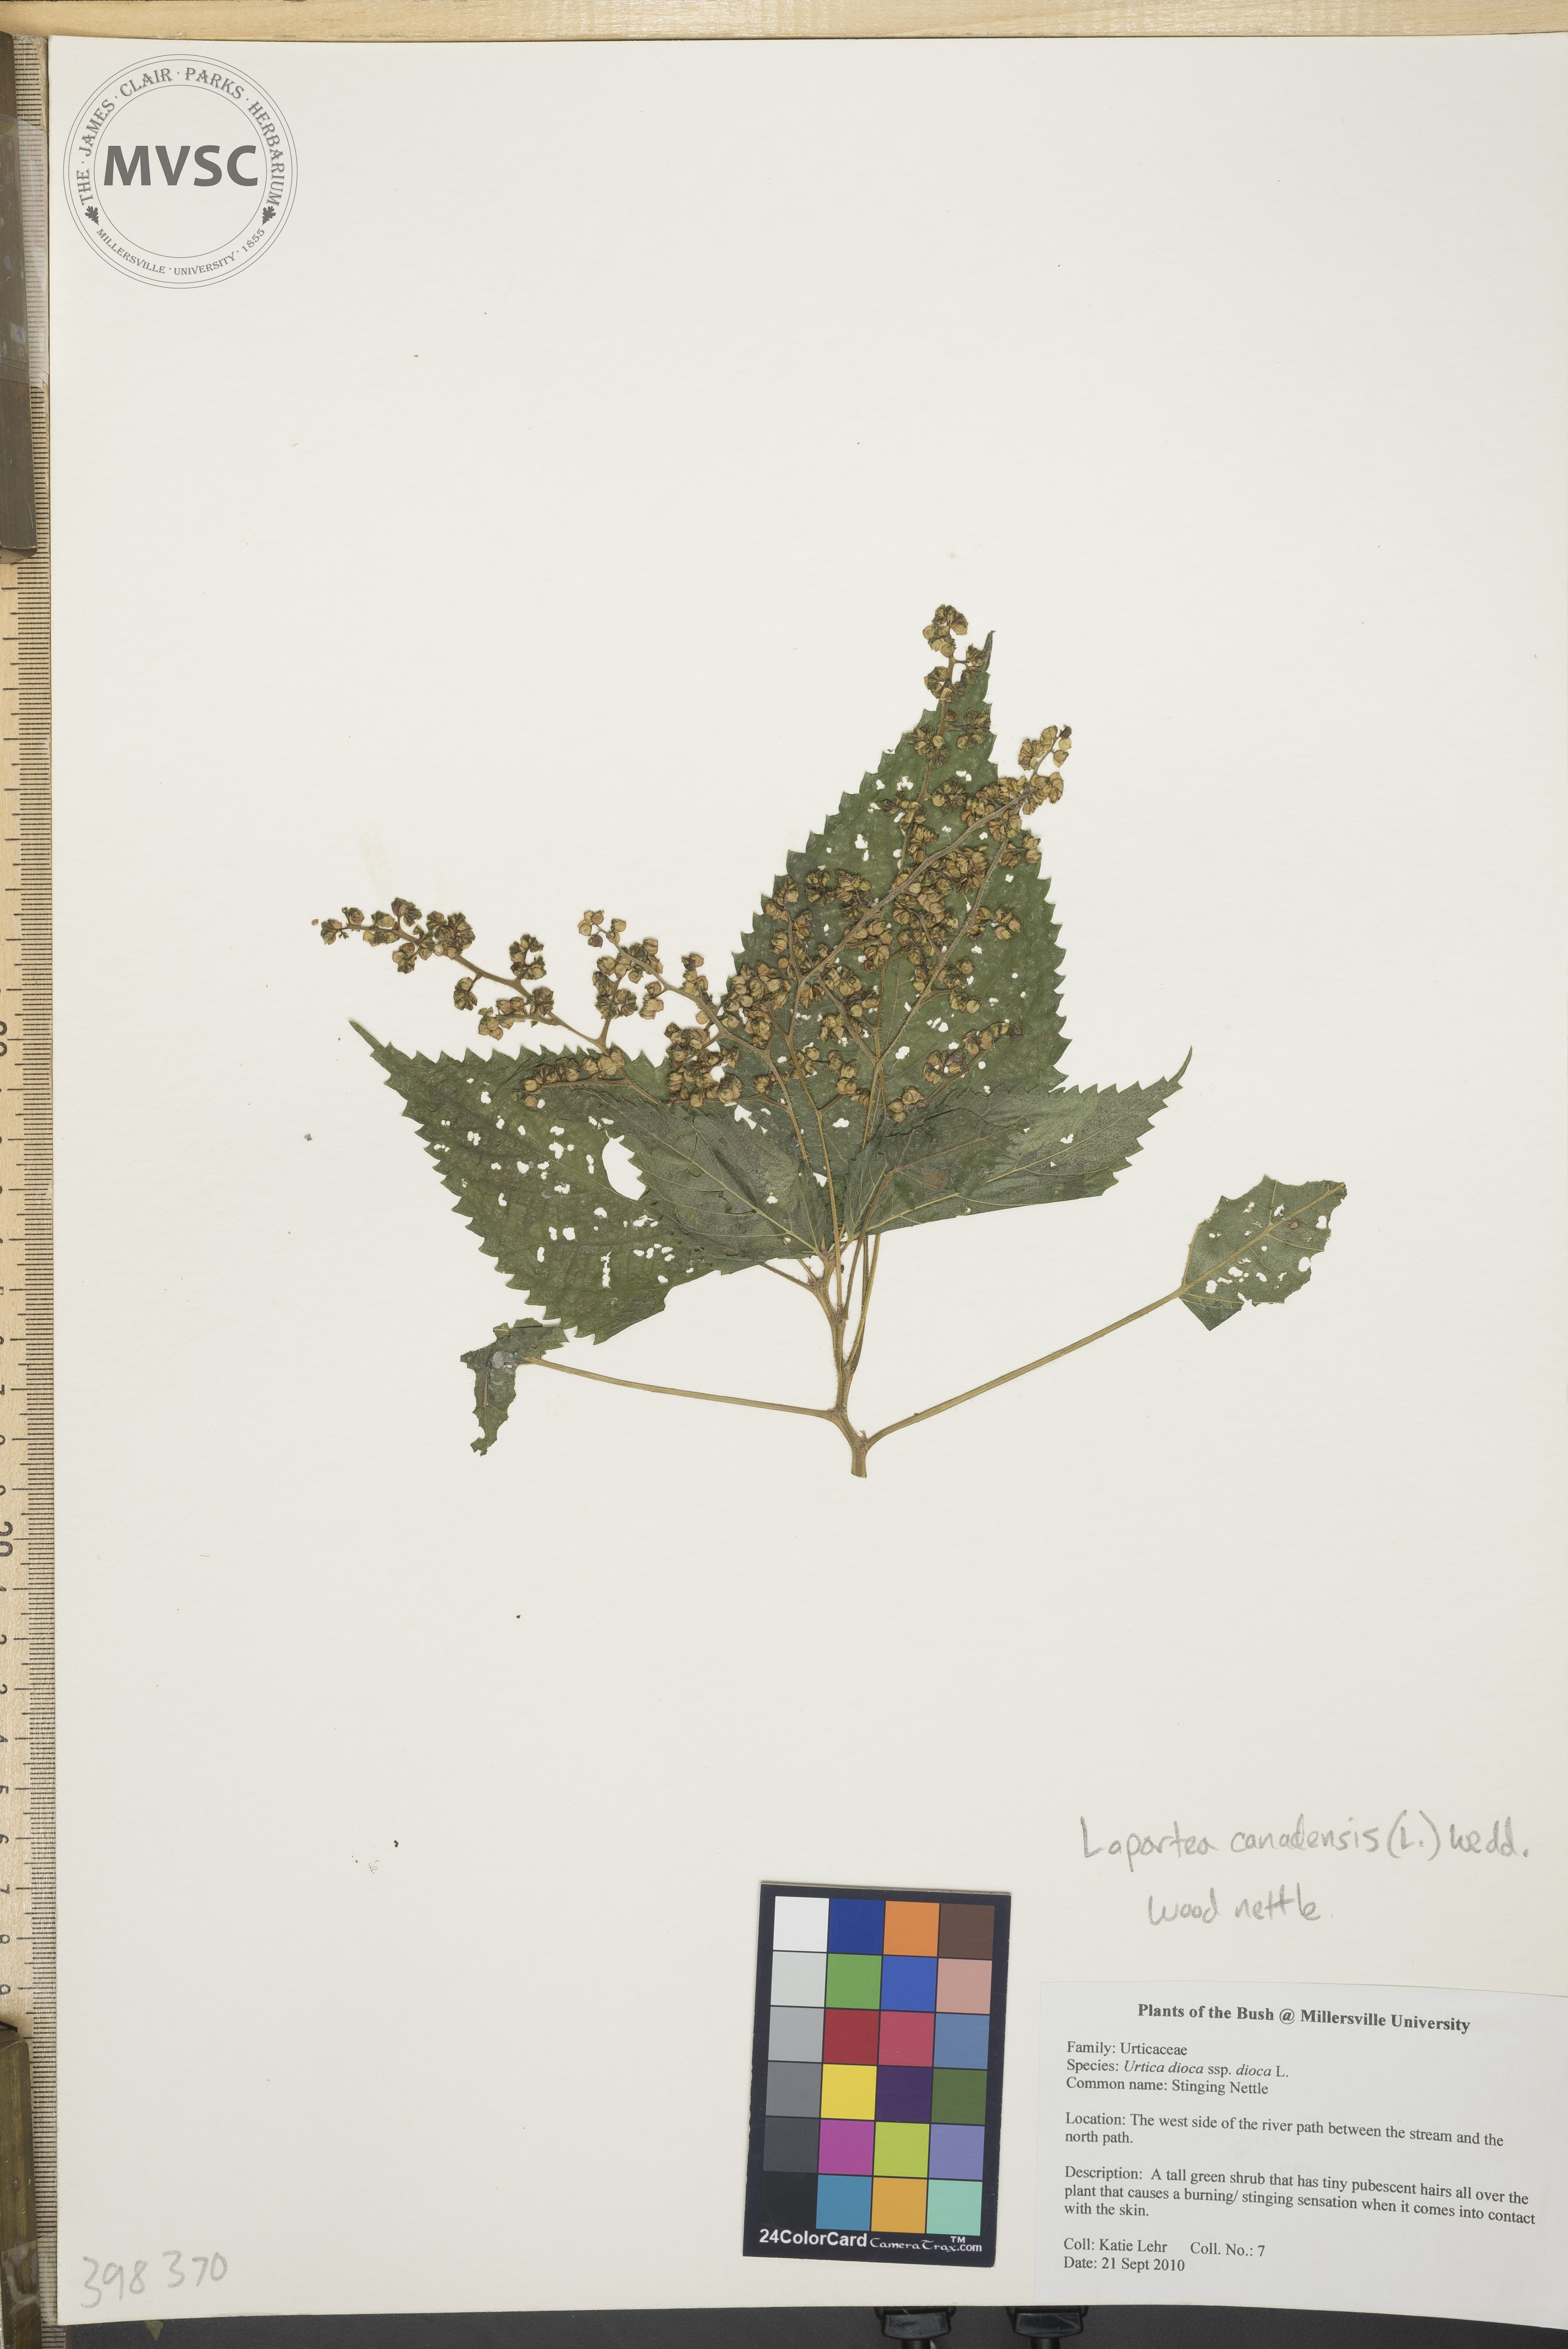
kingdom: Plantae
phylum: Tracheophyta
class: Magnoliopsida
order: Rosales
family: Urticaceae
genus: Laportea
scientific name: Laportea canadensis
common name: Wood-nettle
